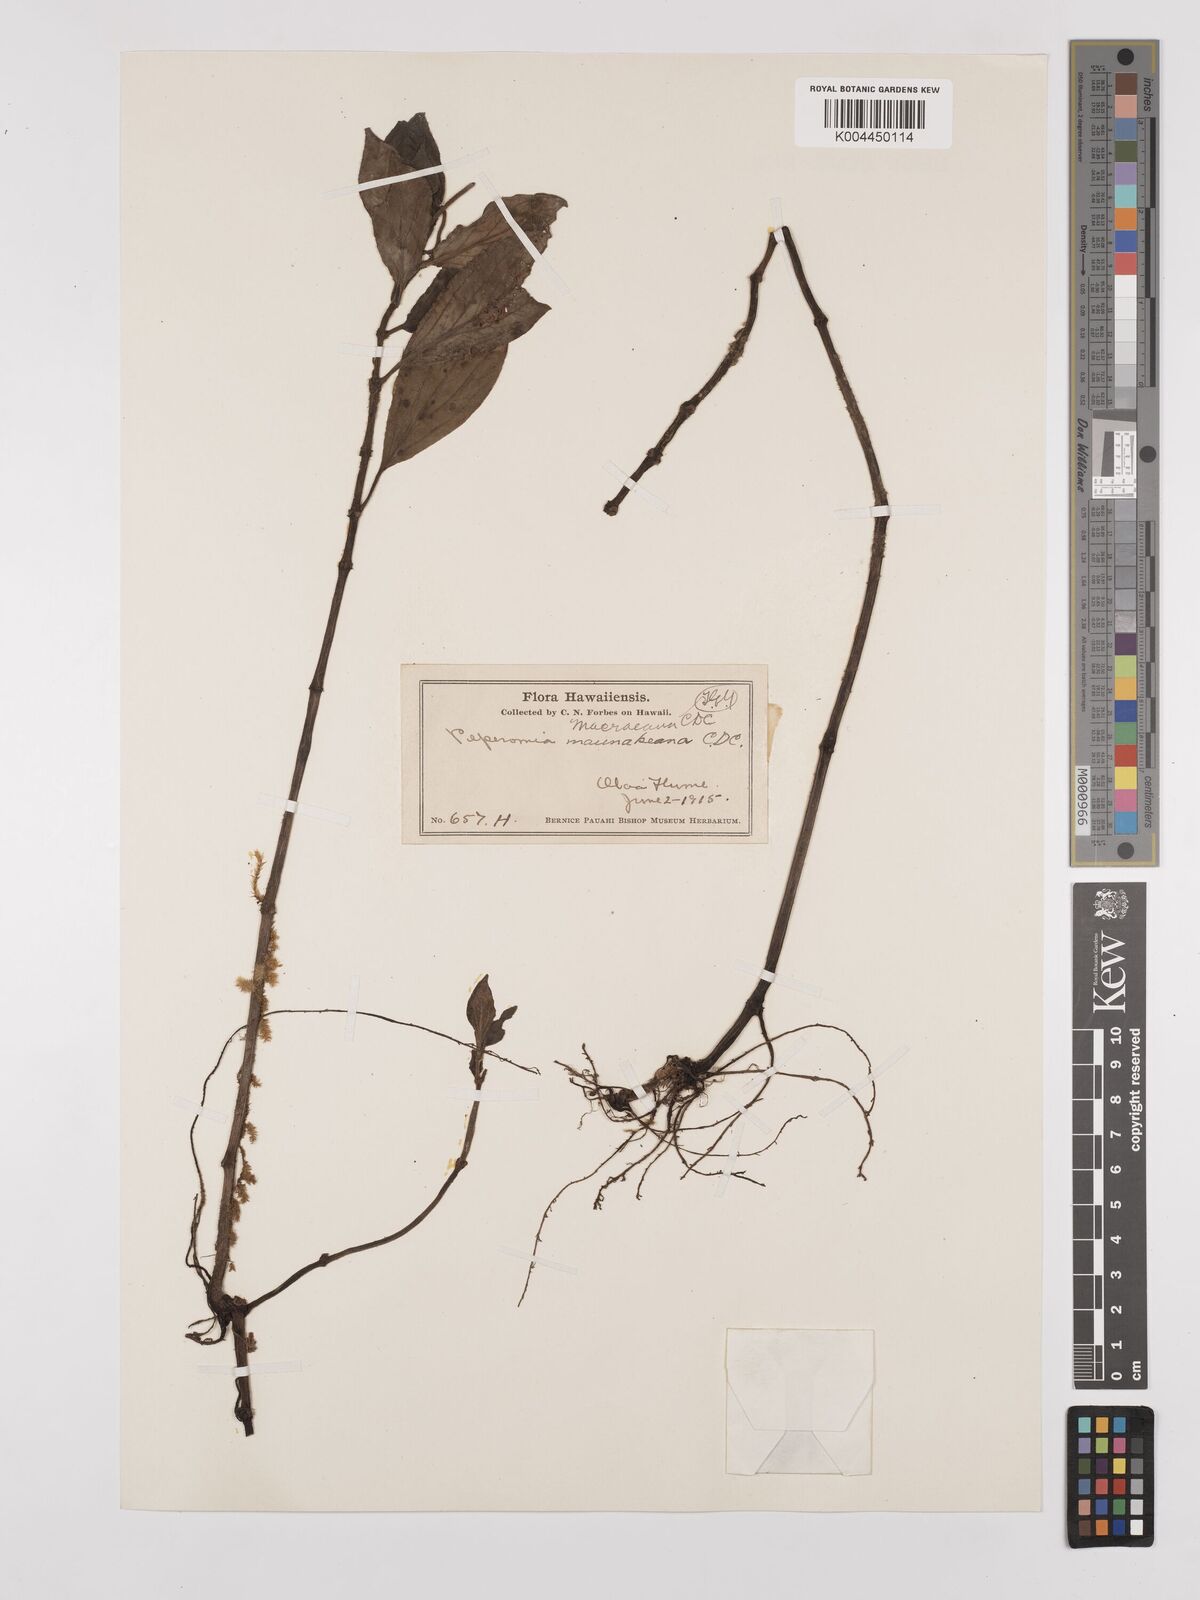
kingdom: Plantae
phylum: Tracheophyta
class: Magnoliopsida
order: Piperales
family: Piperaceae
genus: Peperomia
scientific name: Peperomia macraeana
